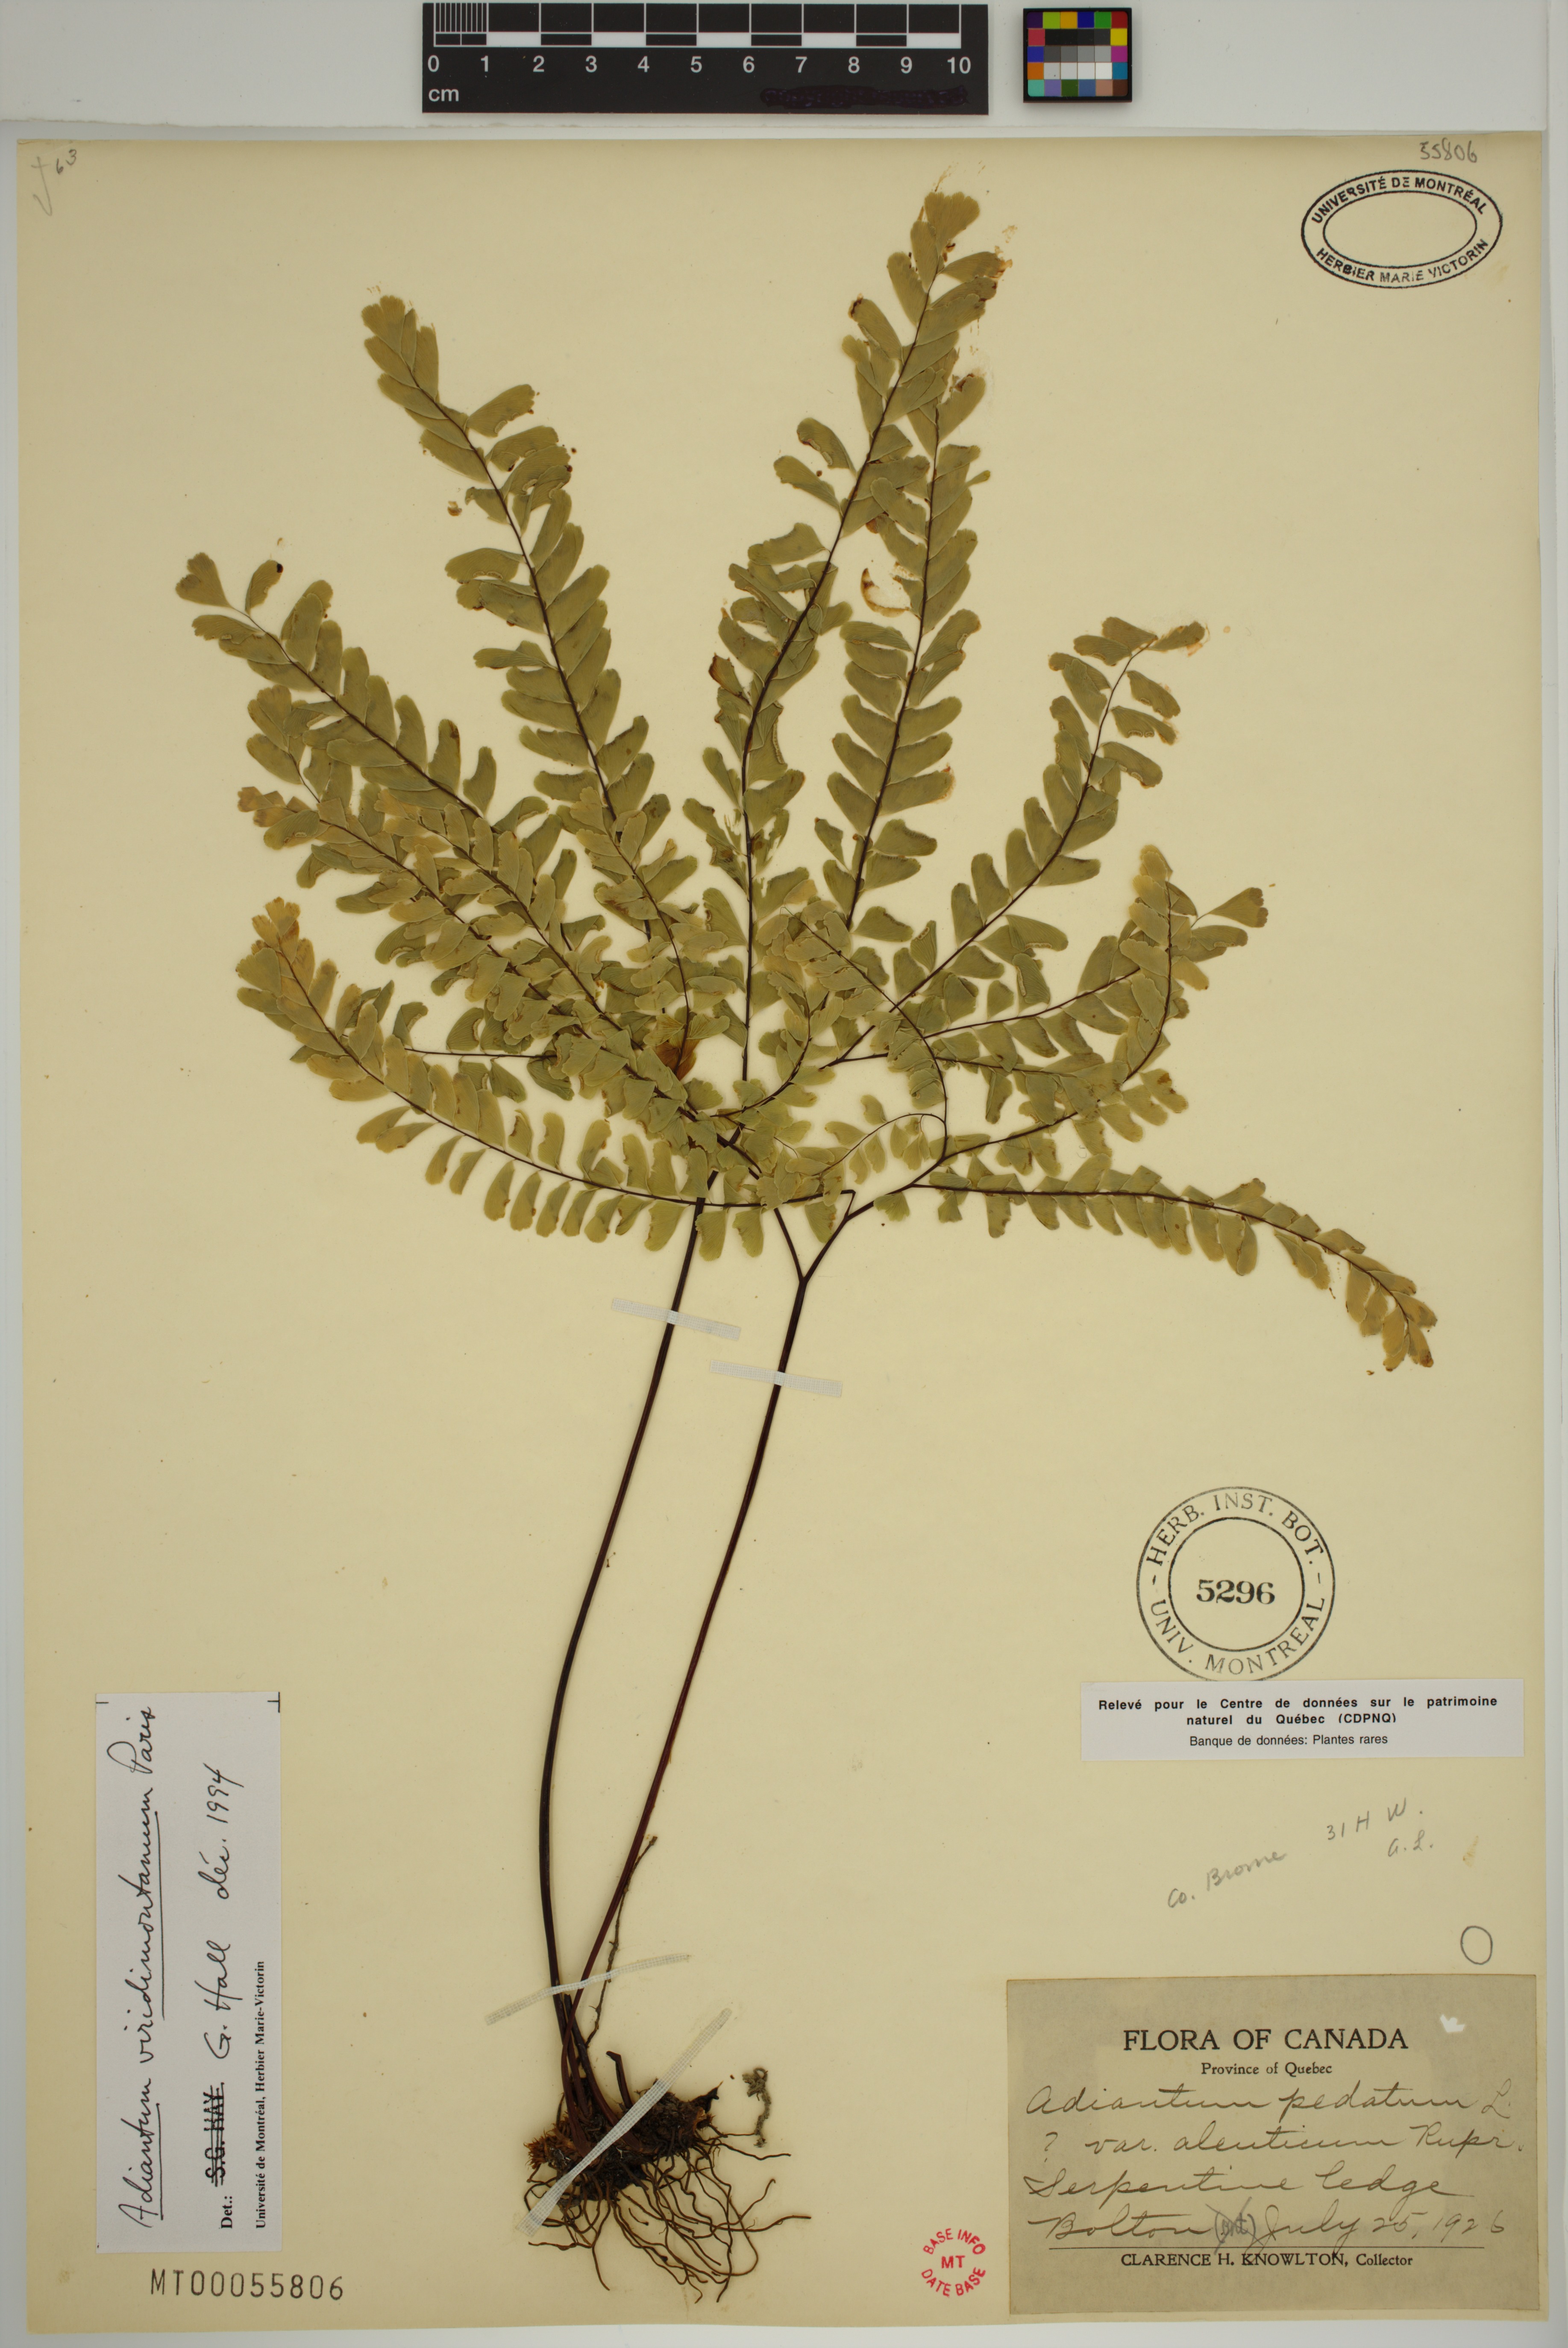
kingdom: Plantae
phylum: Tracheophyta
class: Polypodiopsida
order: Polypodiales
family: Pteridaceae
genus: Adiantum
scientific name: Adiantum viridimontanum
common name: Green mountain maidenhair
